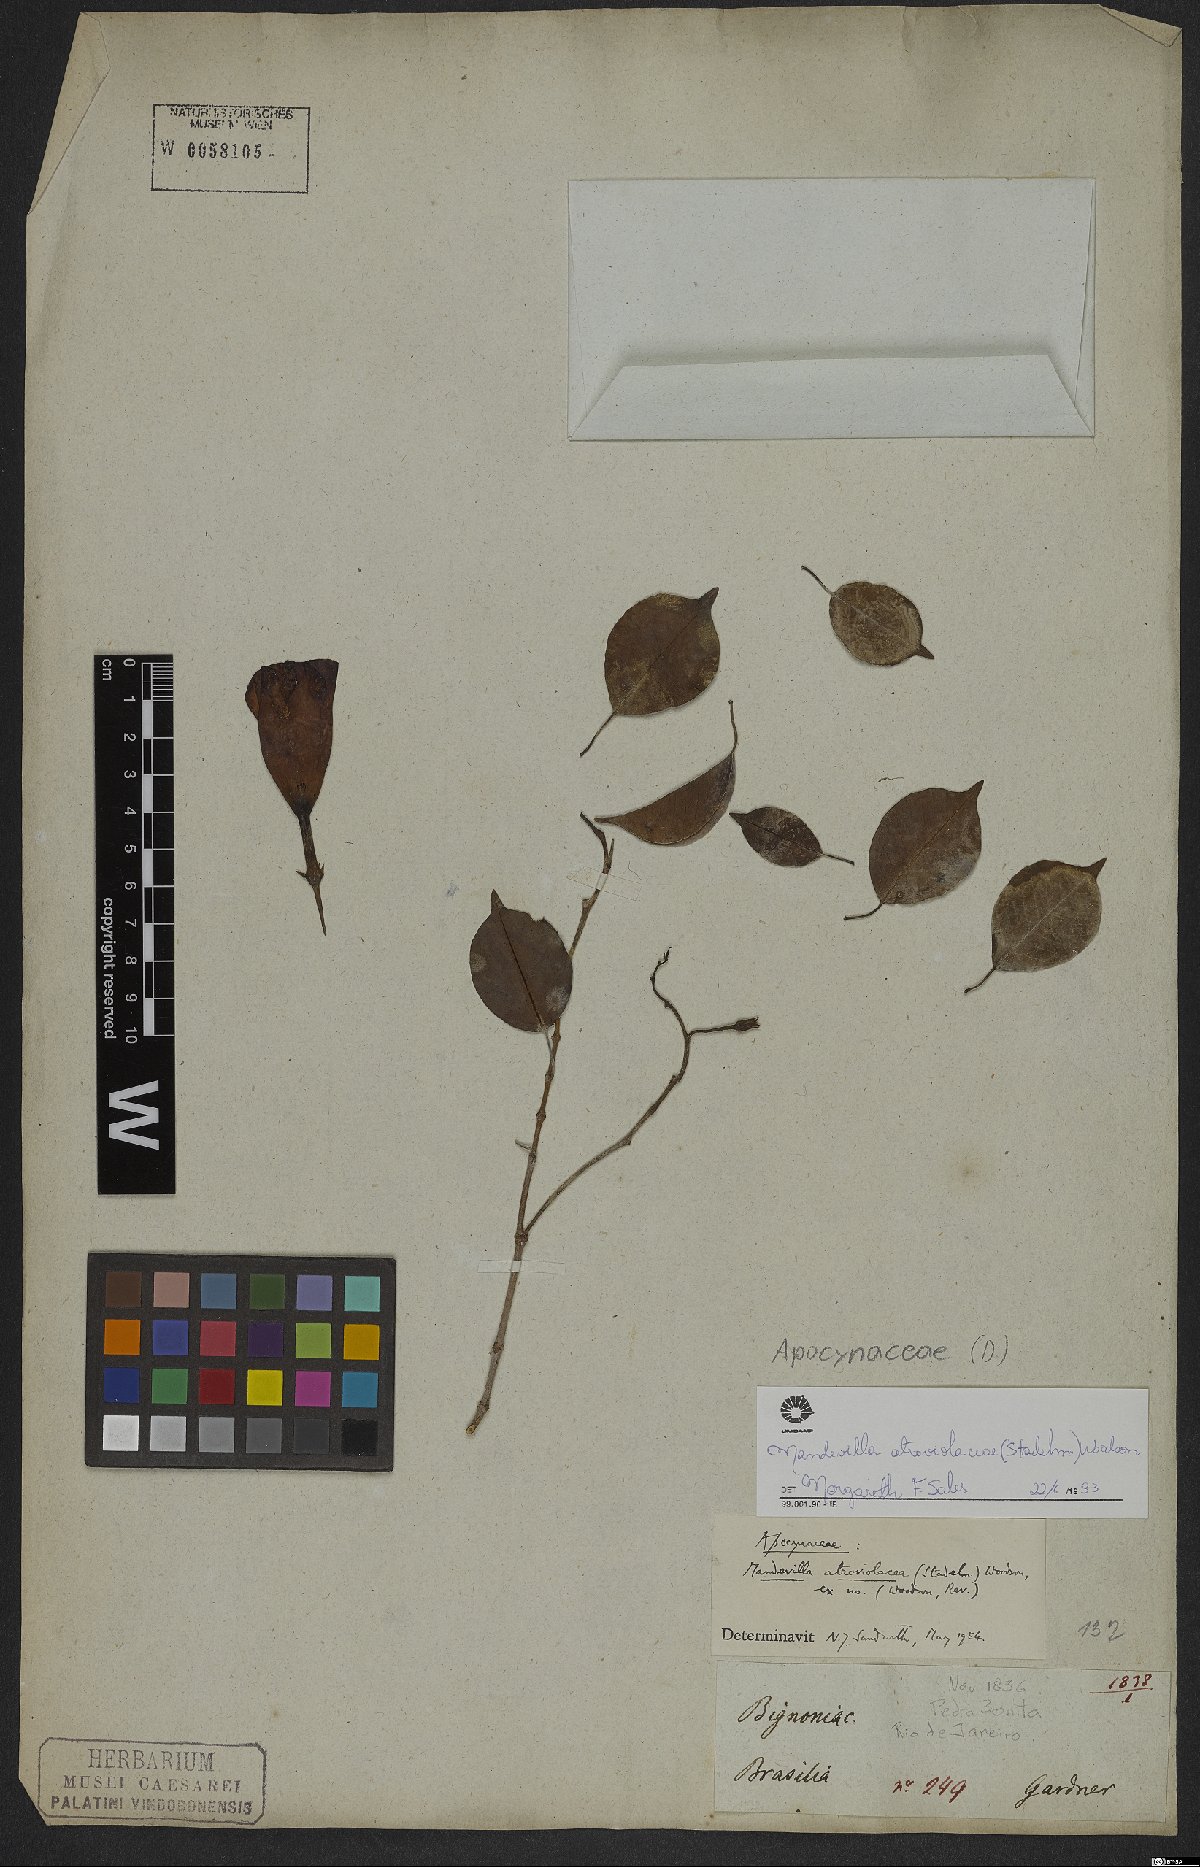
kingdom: Plantae
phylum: Tracheophyta
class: Magnoliopsida
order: Gentianales
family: Apocynaceae
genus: Mandevilla
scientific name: Mandevilla atroviolacea
